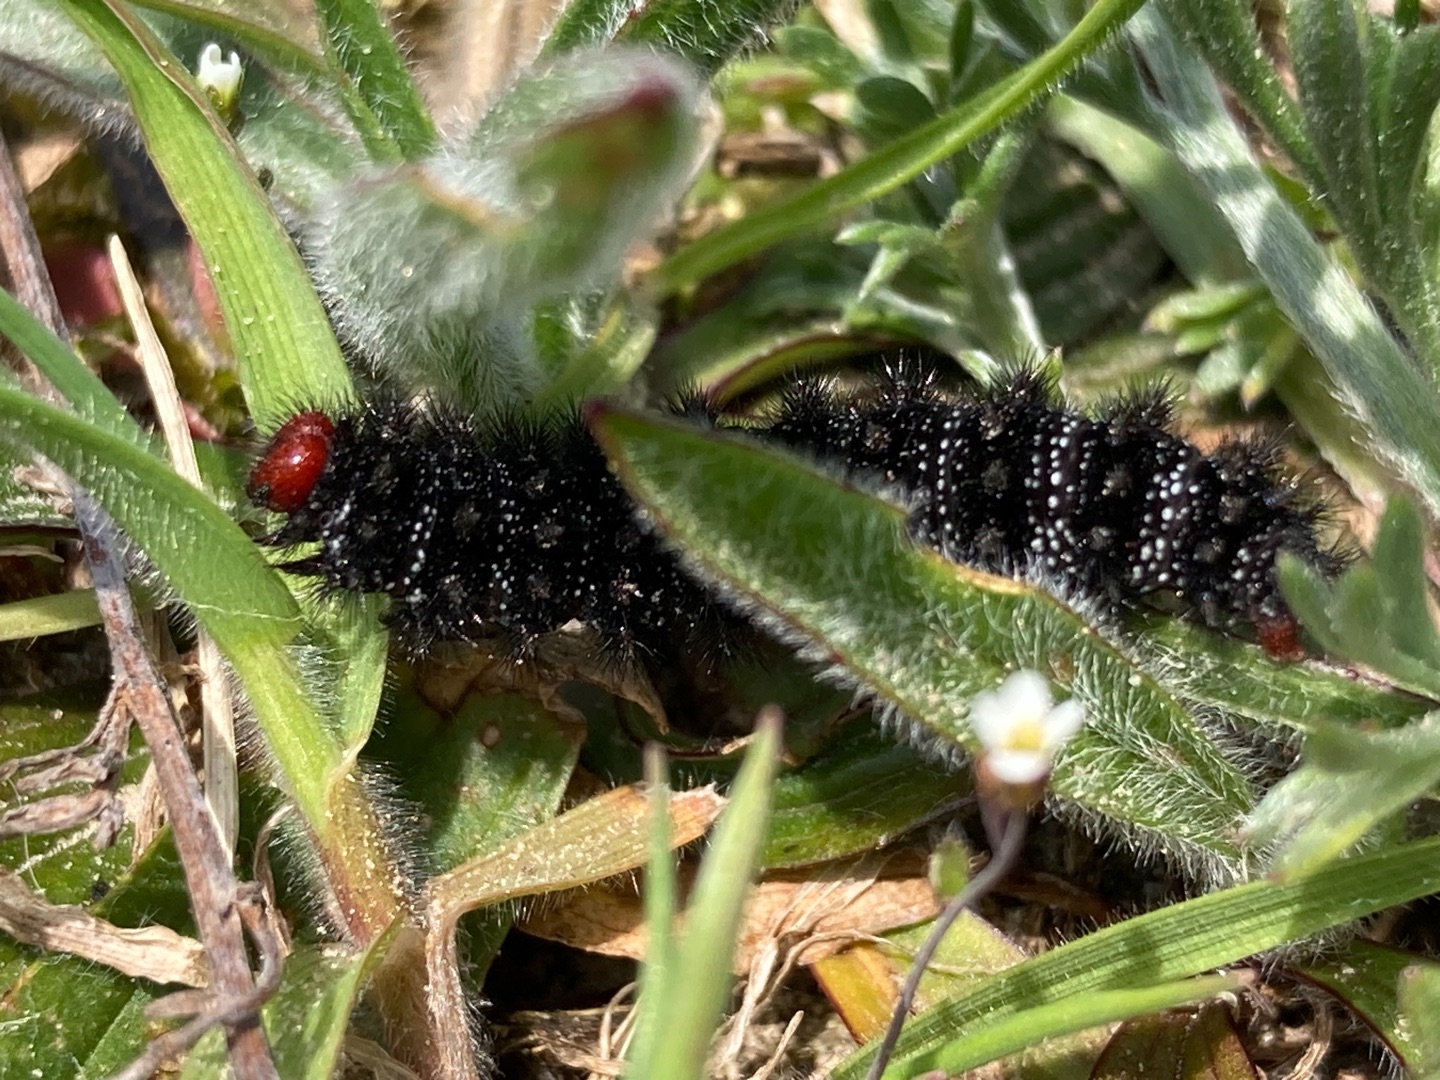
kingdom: Animalia
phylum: Arthropoda
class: Insecta
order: Lepidoptera
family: Nymphalidae
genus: Melitaea
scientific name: Melitaea cinxia
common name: Okkergul pletvinge
